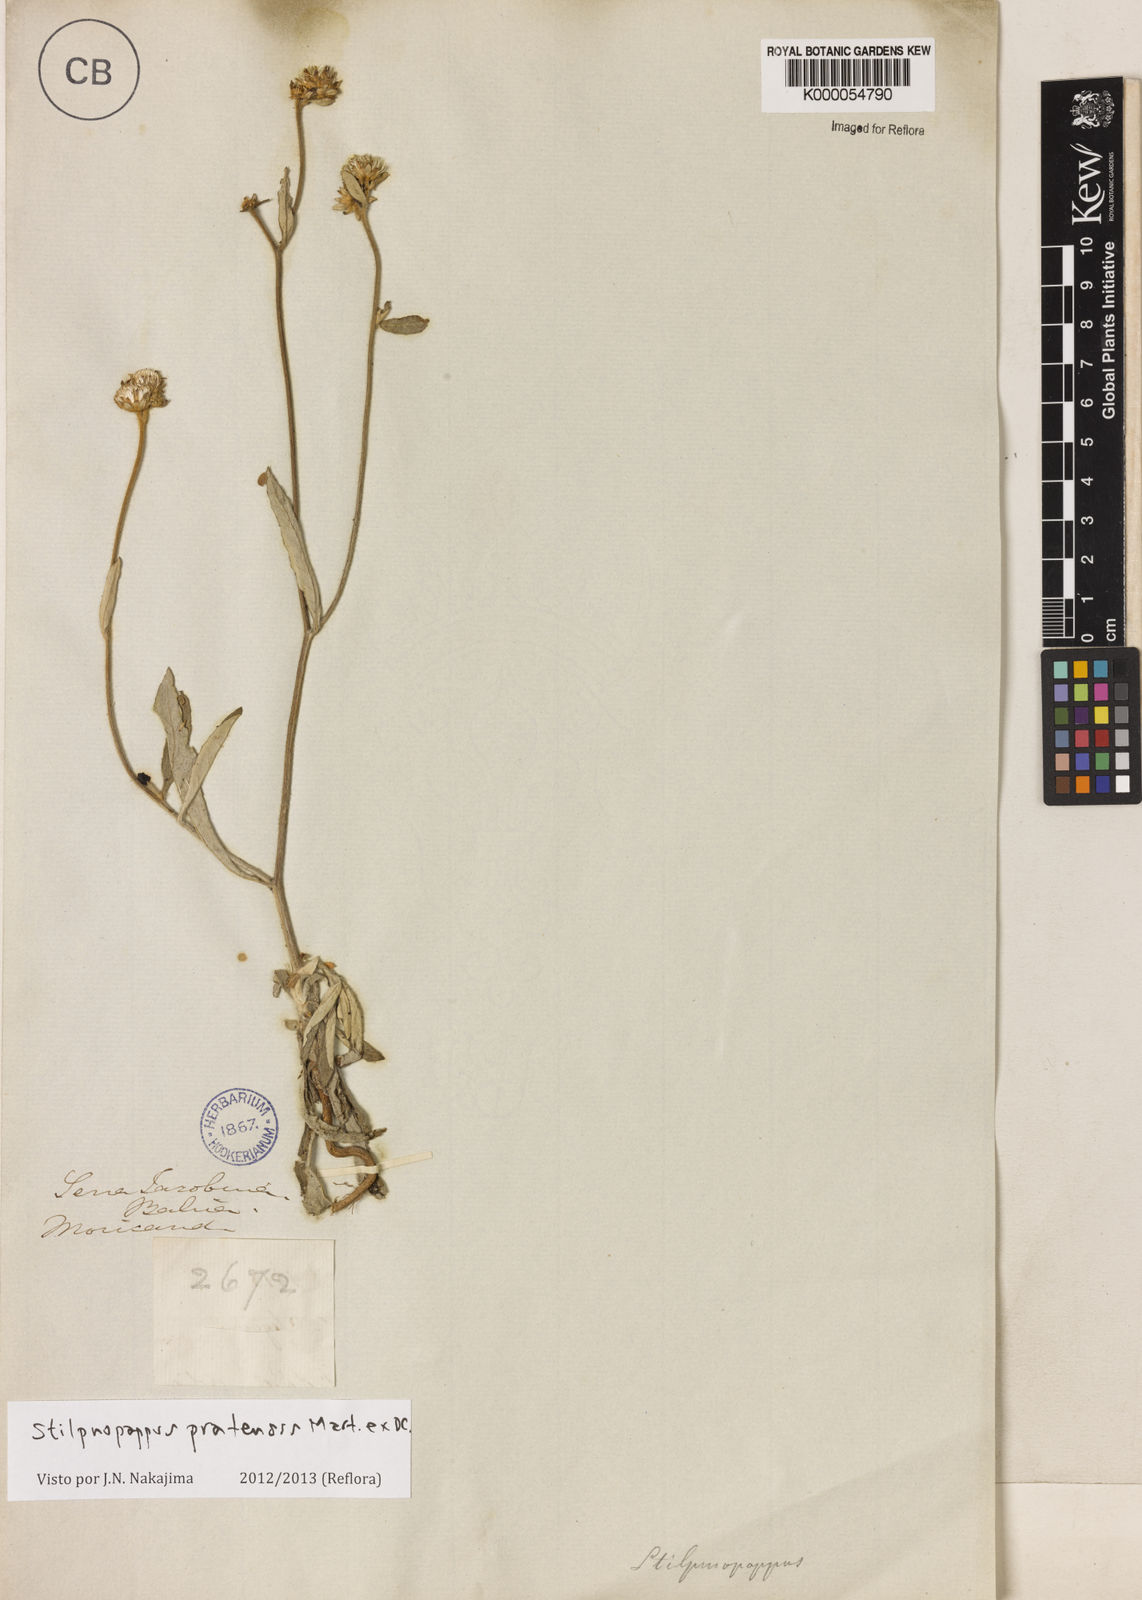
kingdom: Plantae
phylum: Tracheophyta
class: Magnoliopsida
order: Asterales
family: Asteraceae
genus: Stilpnopappus
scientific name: Stilpnopappus pratensis
